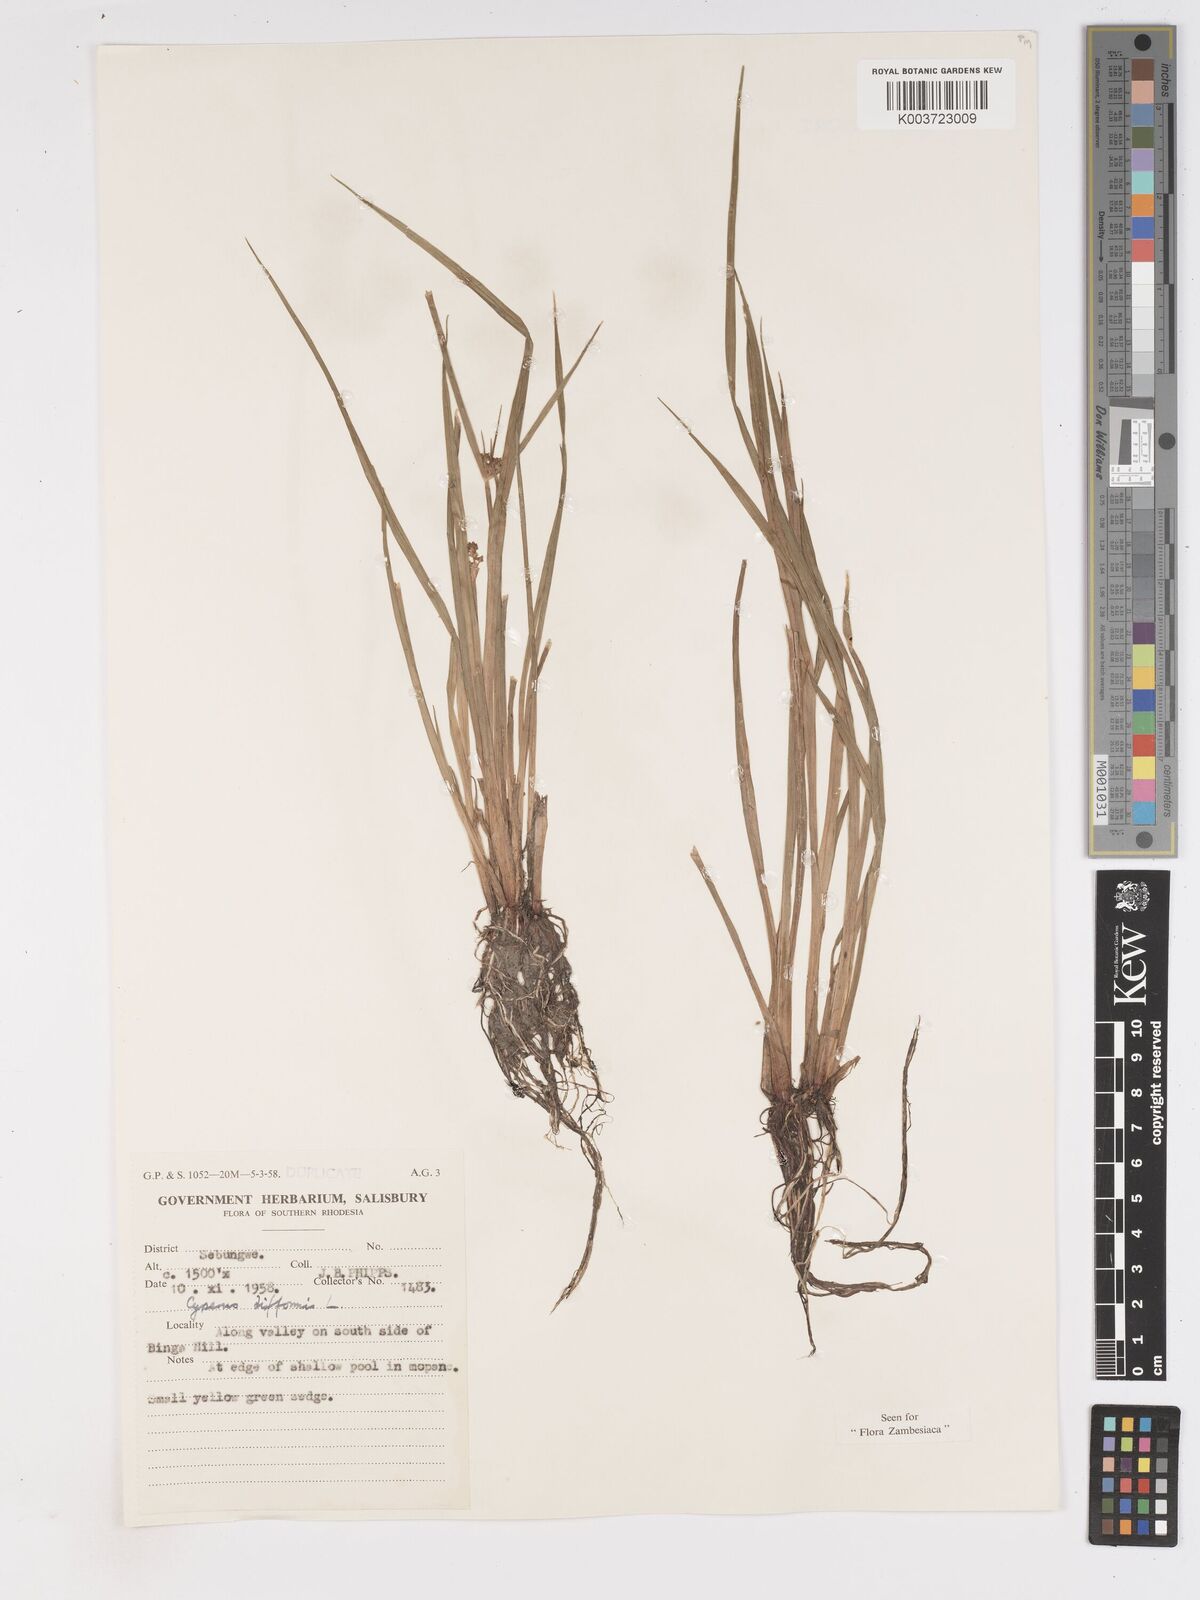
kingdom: Plantae
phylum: Tracheophyta
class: Liliopsida
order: Poales
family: Cyperaceae
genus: Cyperus
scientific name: Cyperus difformis
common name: Variable flatsedge
